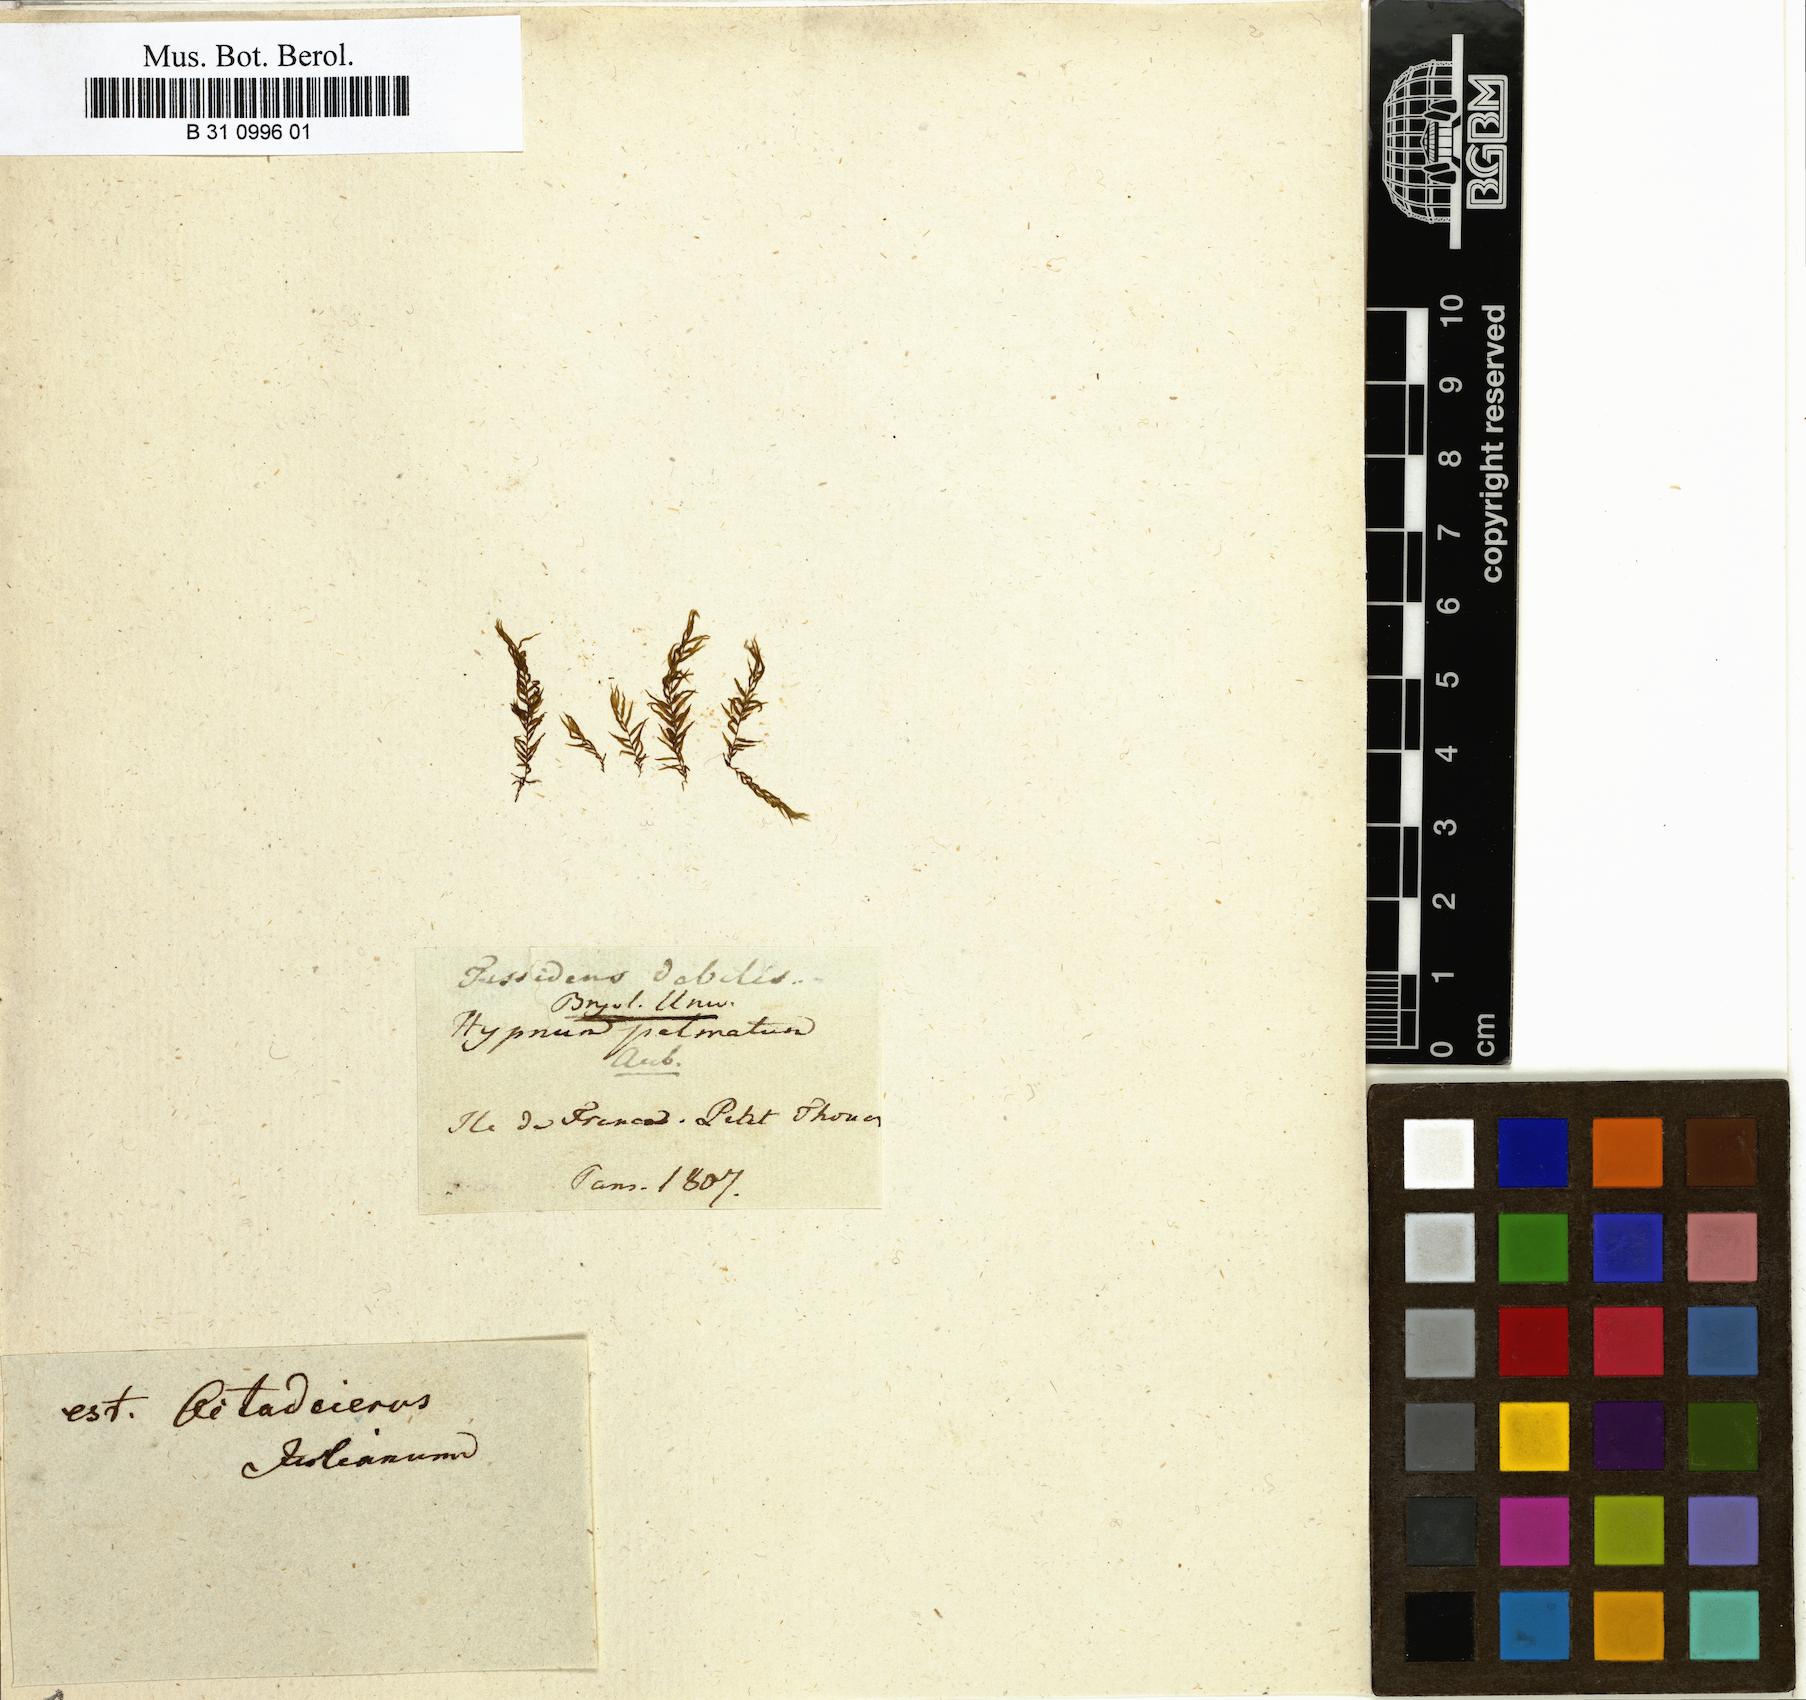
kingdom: Plantae
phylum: Bryophyta
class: Bryopsida
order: Dicranales
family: Fissidentaceae
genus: Fissidens
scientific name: Fissidens palmifolius
